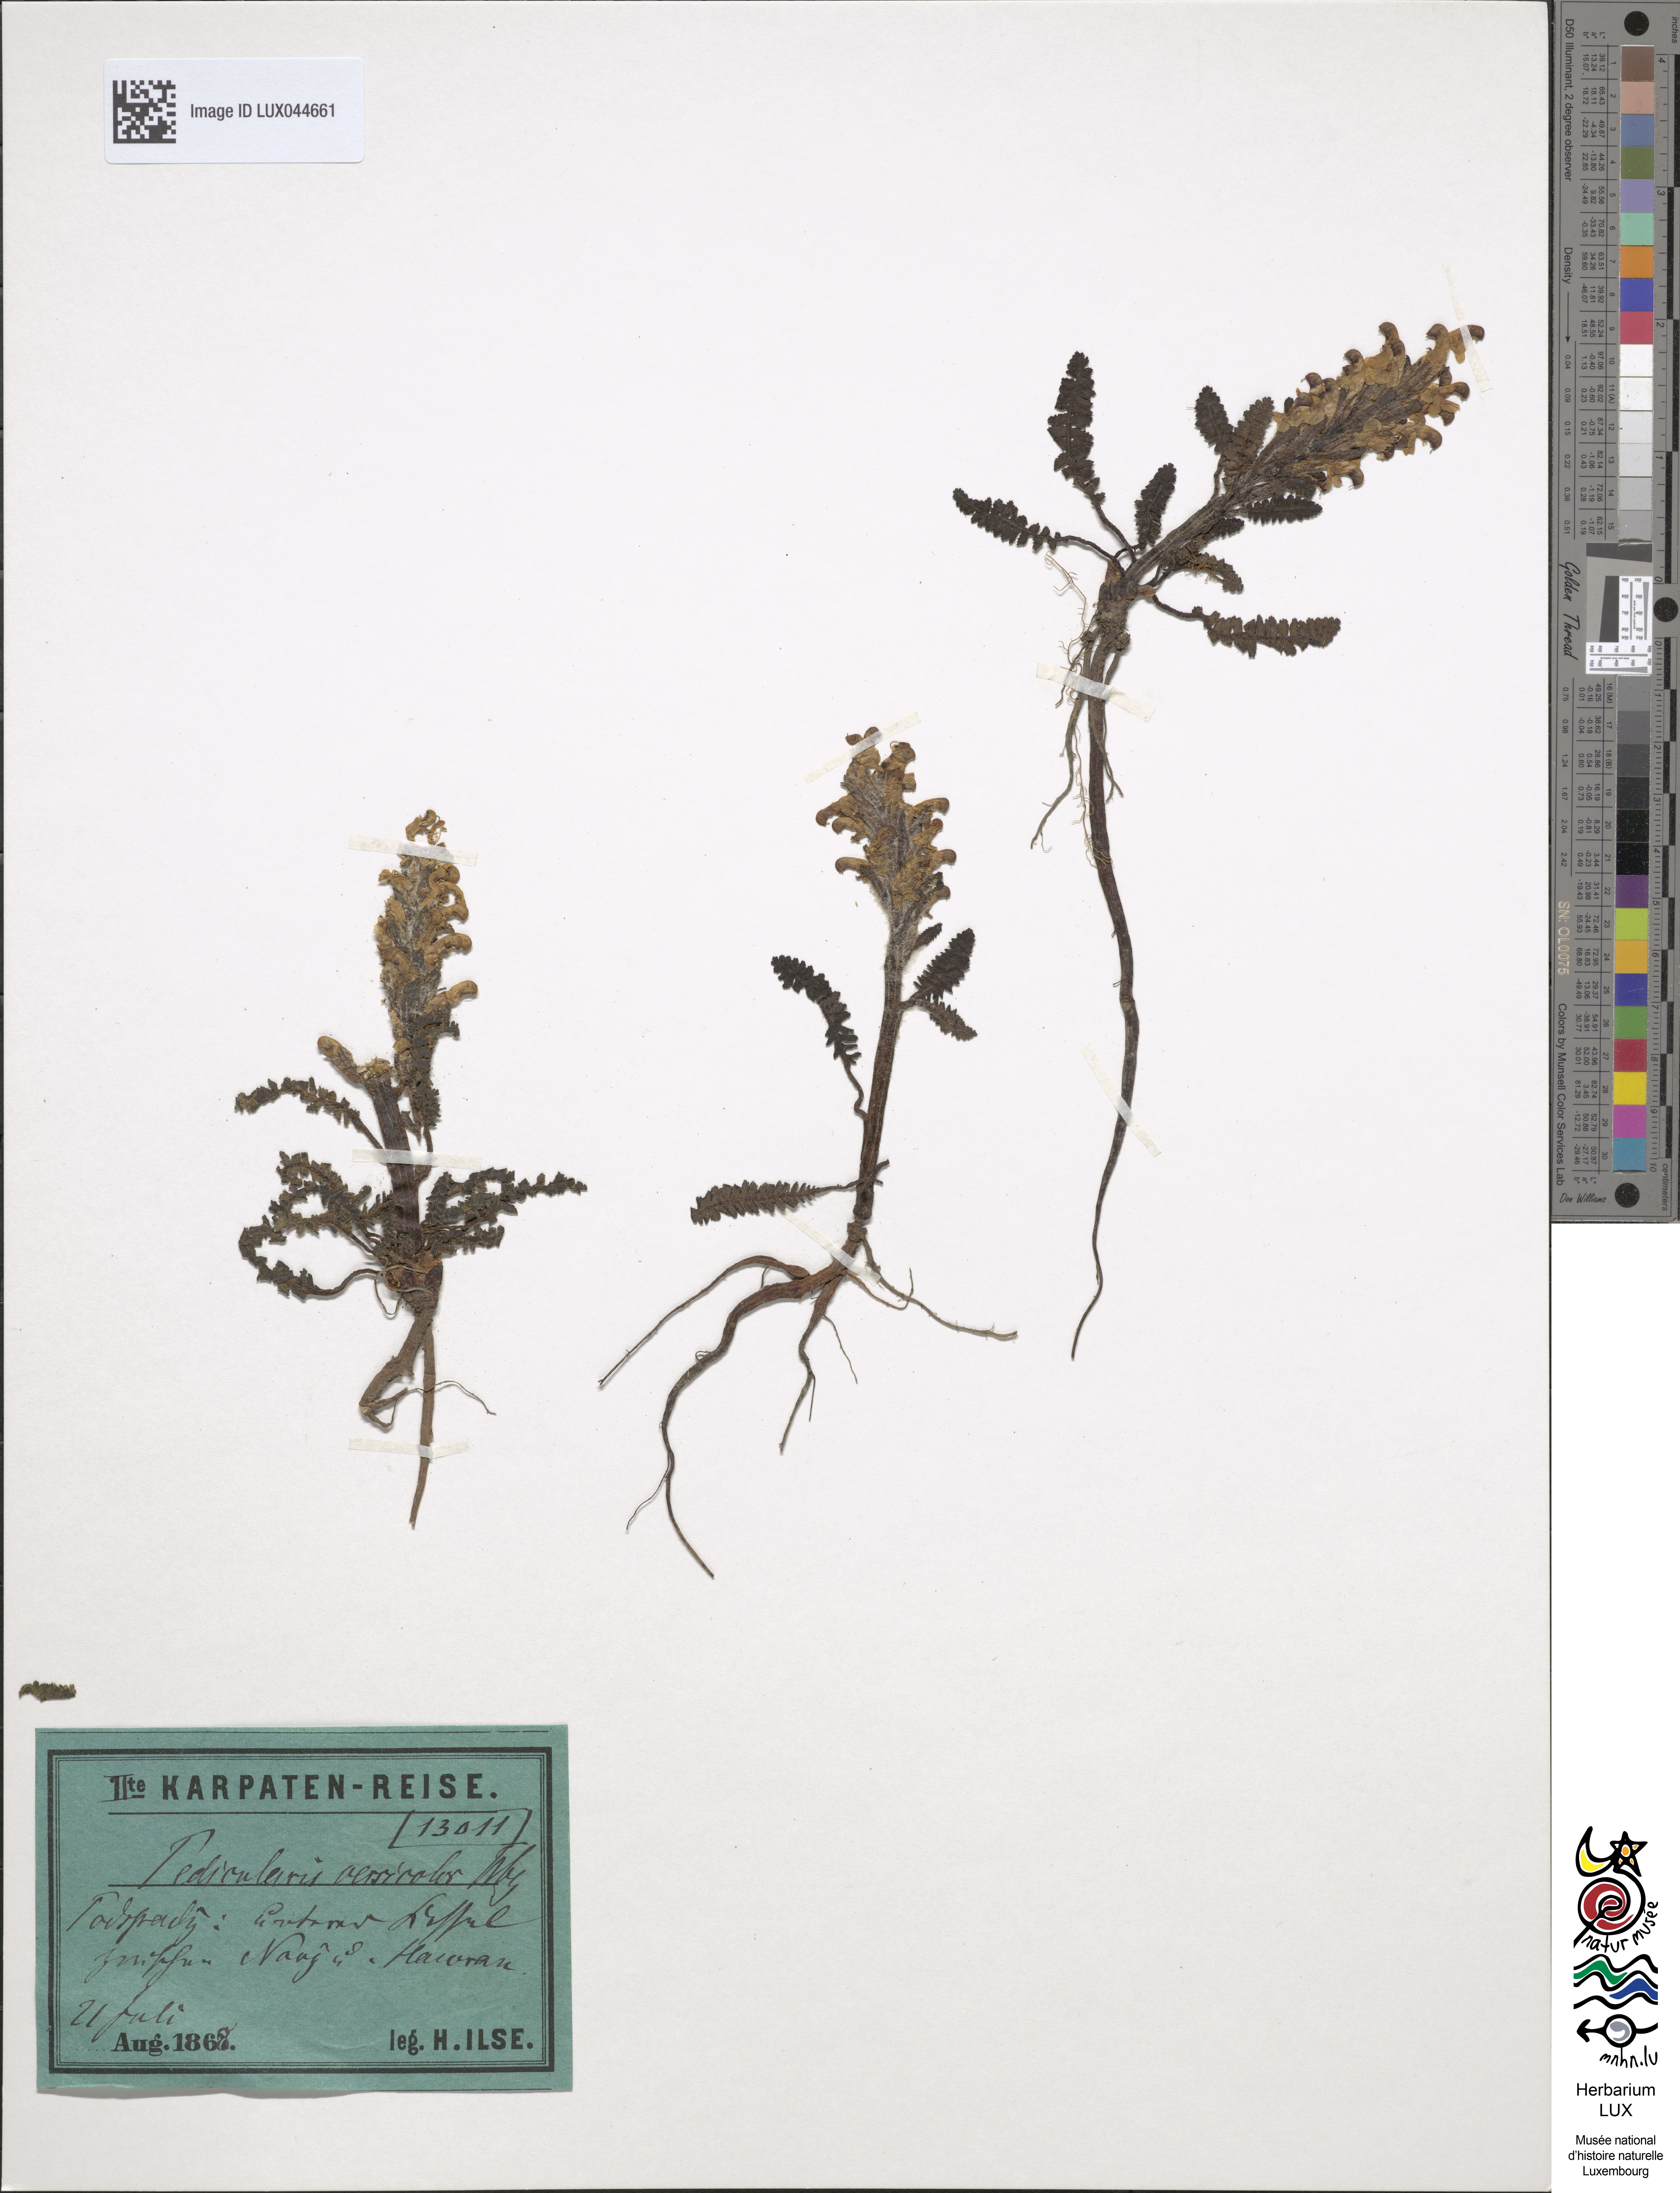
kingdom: Plantae
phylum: Tracheophyta
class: Magnoliopsida
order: Lamiales
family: Orobanchaceae
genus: Pedicularis
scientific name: Pedicularis oederi
